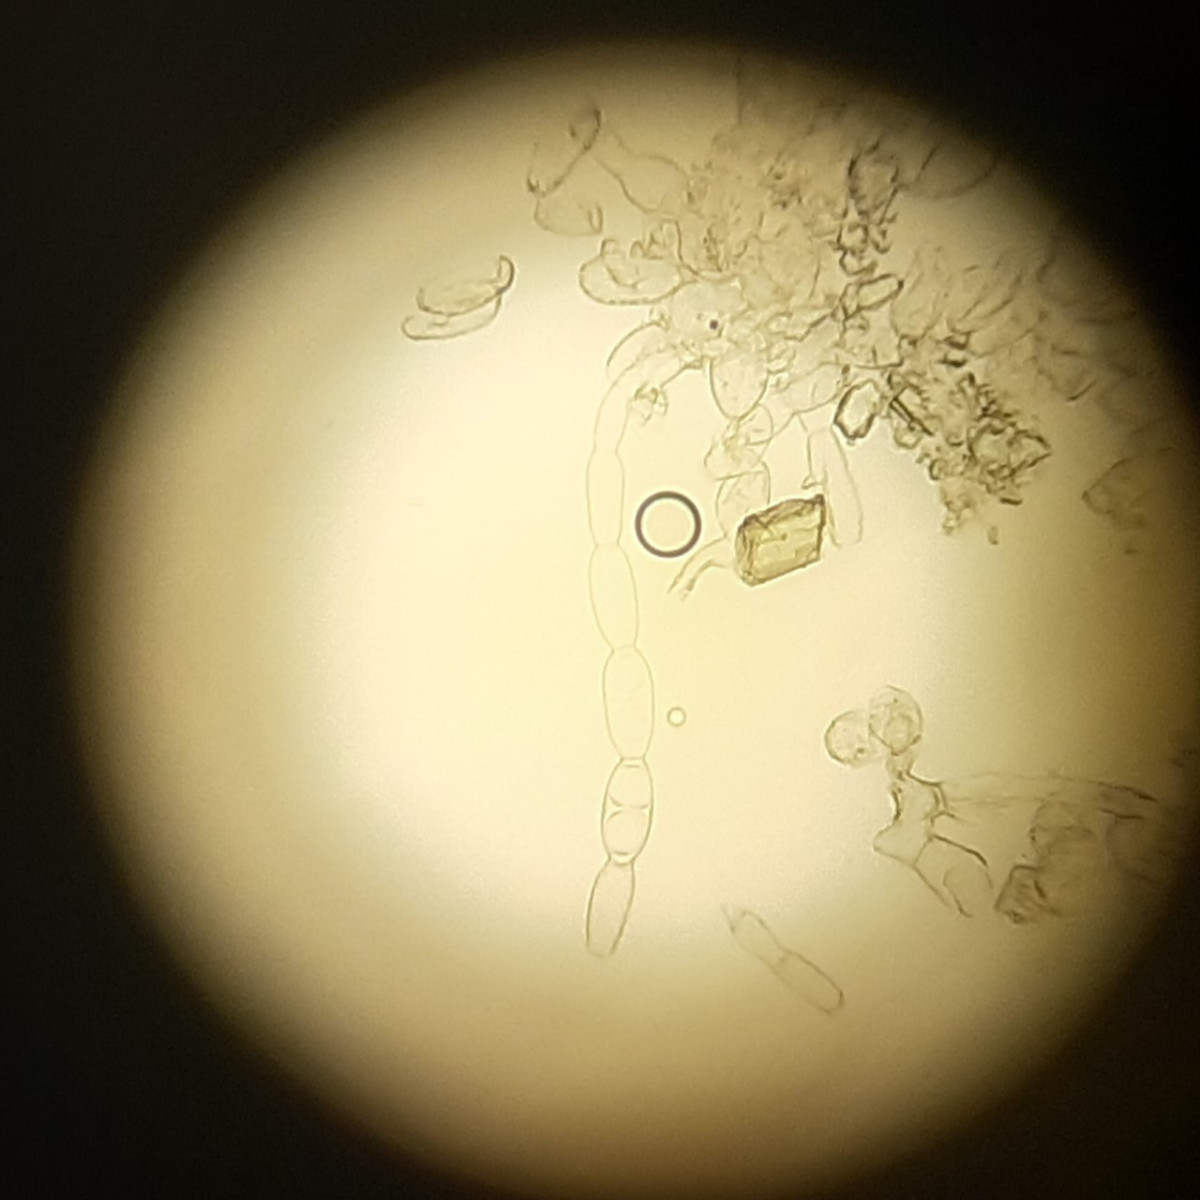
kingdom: Fungi
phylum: Ascomycota
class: Leotiomycetes
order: Helotiales
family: Erysiphaceae
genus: Blumeria
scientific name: Blumeria graminis
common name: græs-meldug
